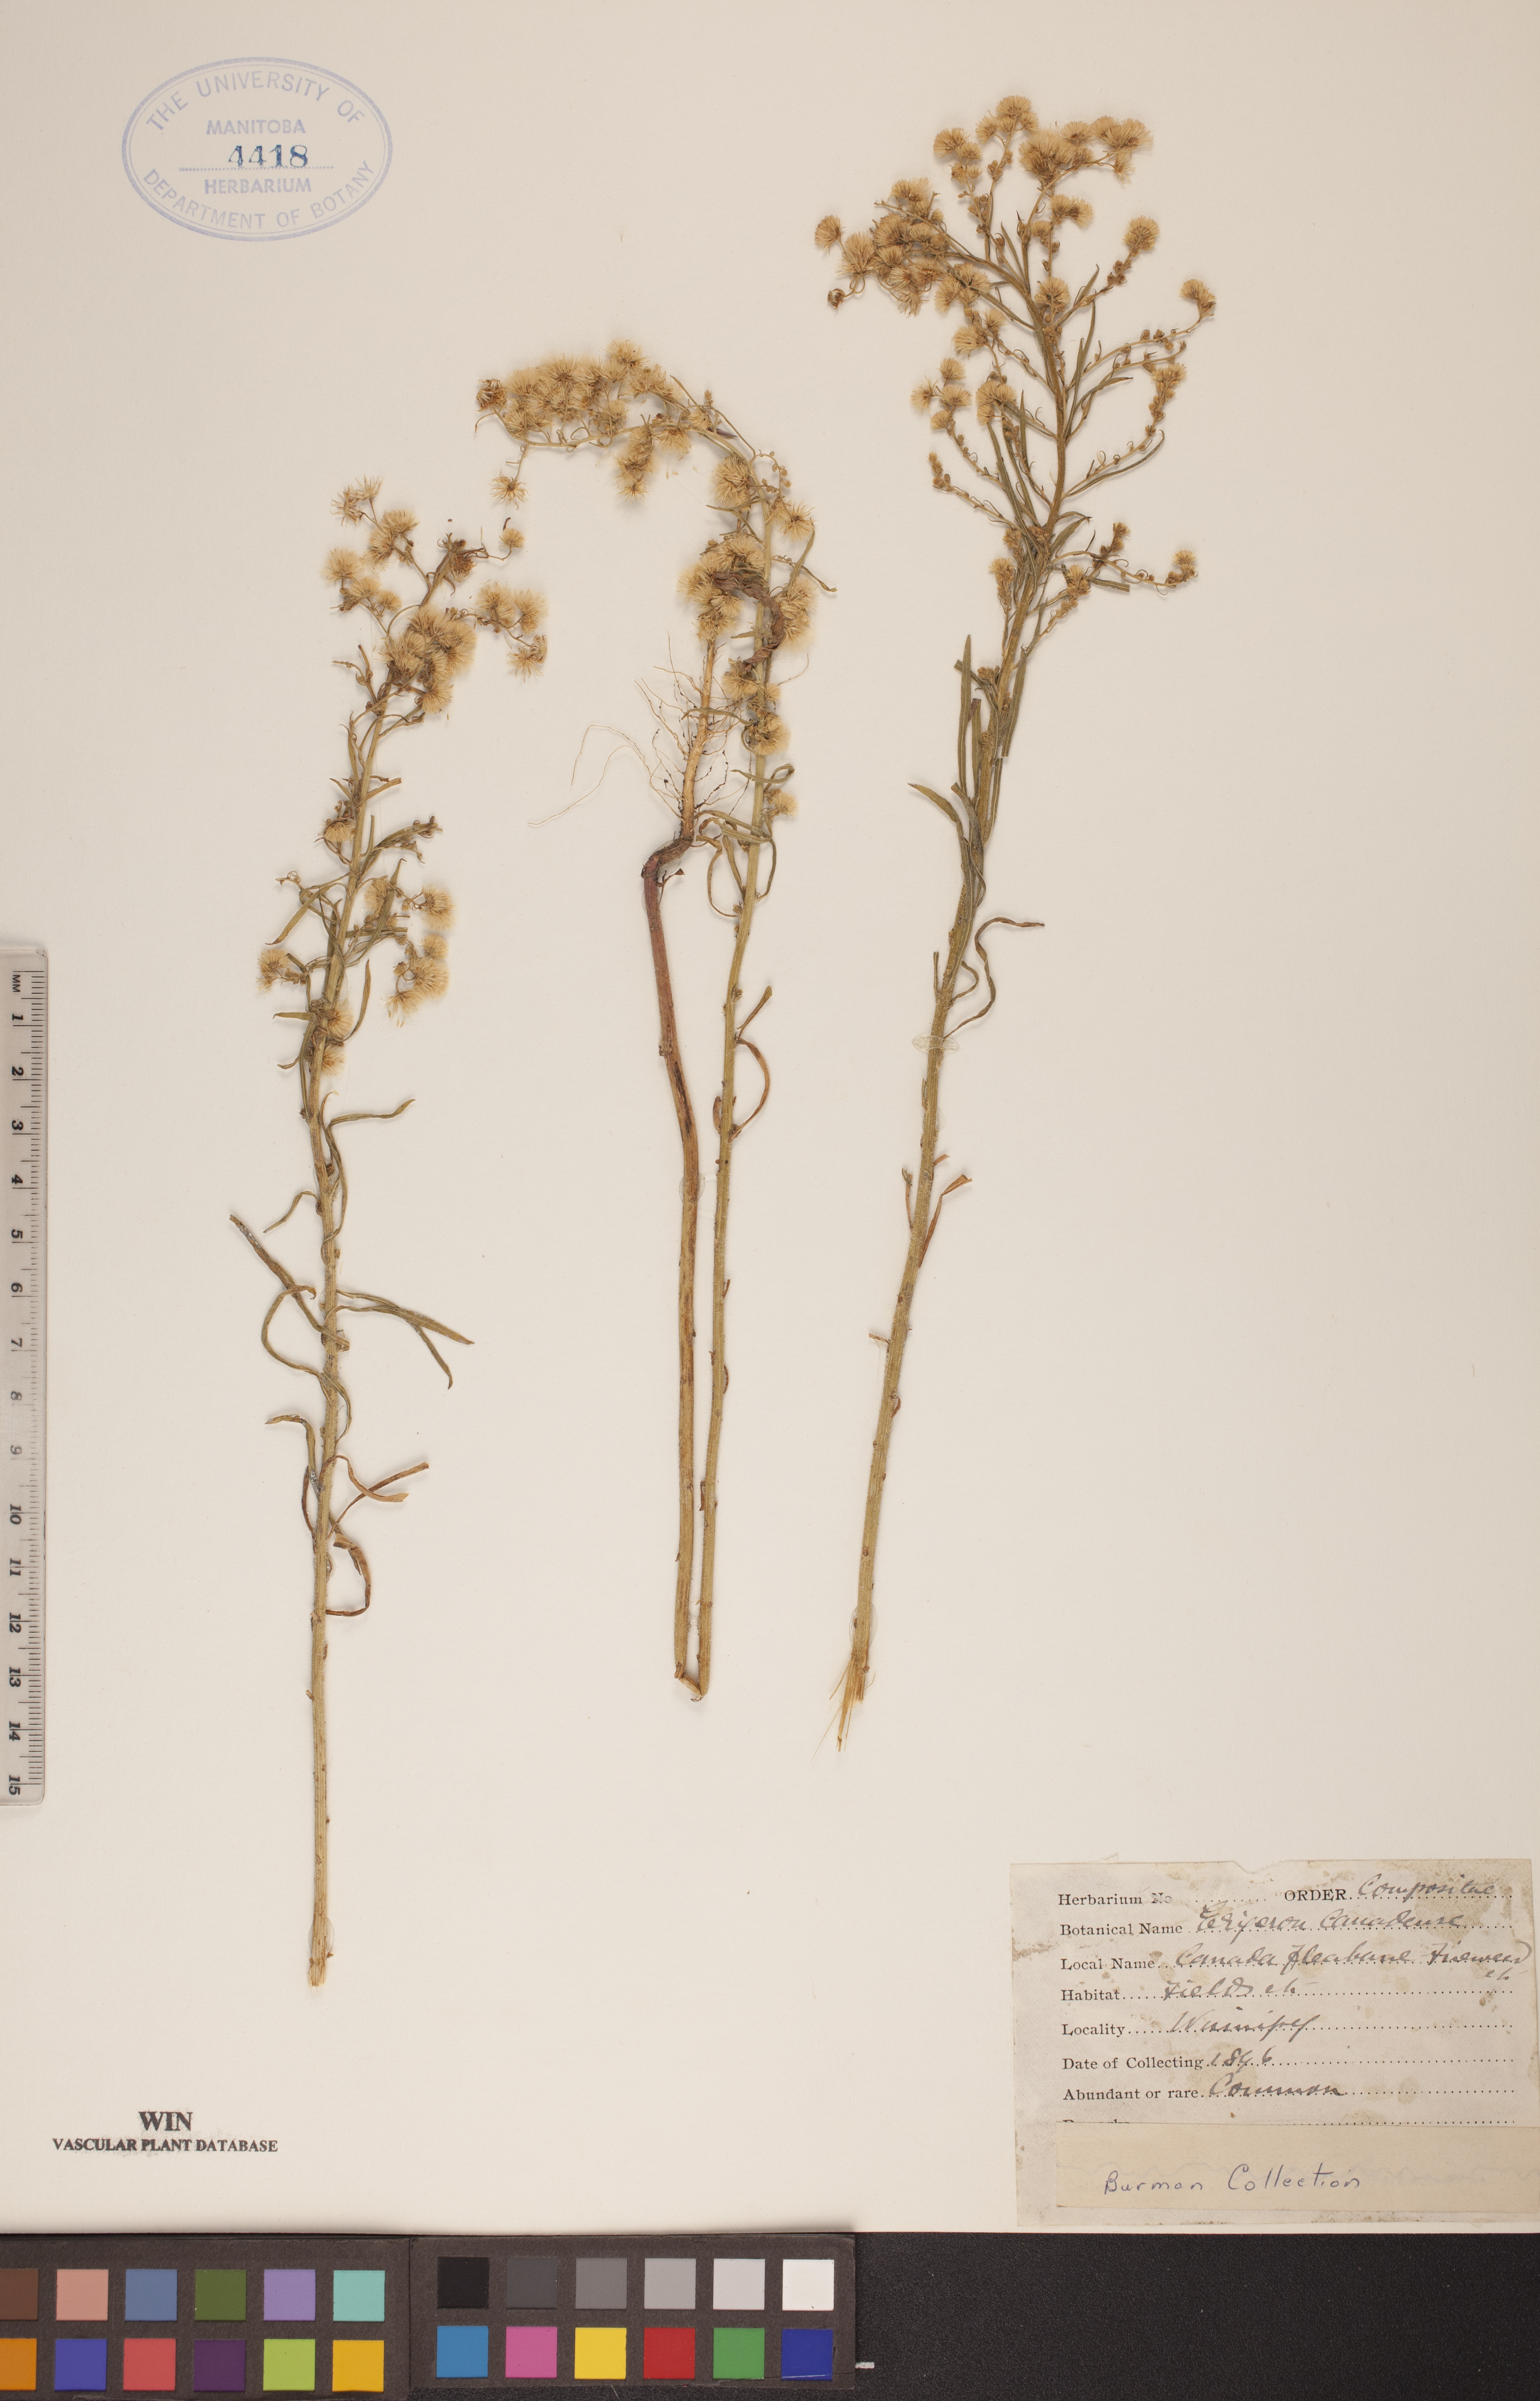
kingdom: Plantae
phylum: Tracheophyta
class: Magnoliopsida
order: Asterales
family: Asteraceae
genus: Erigeron
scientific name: Erigeron canadensis
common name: Canadian fleabane
